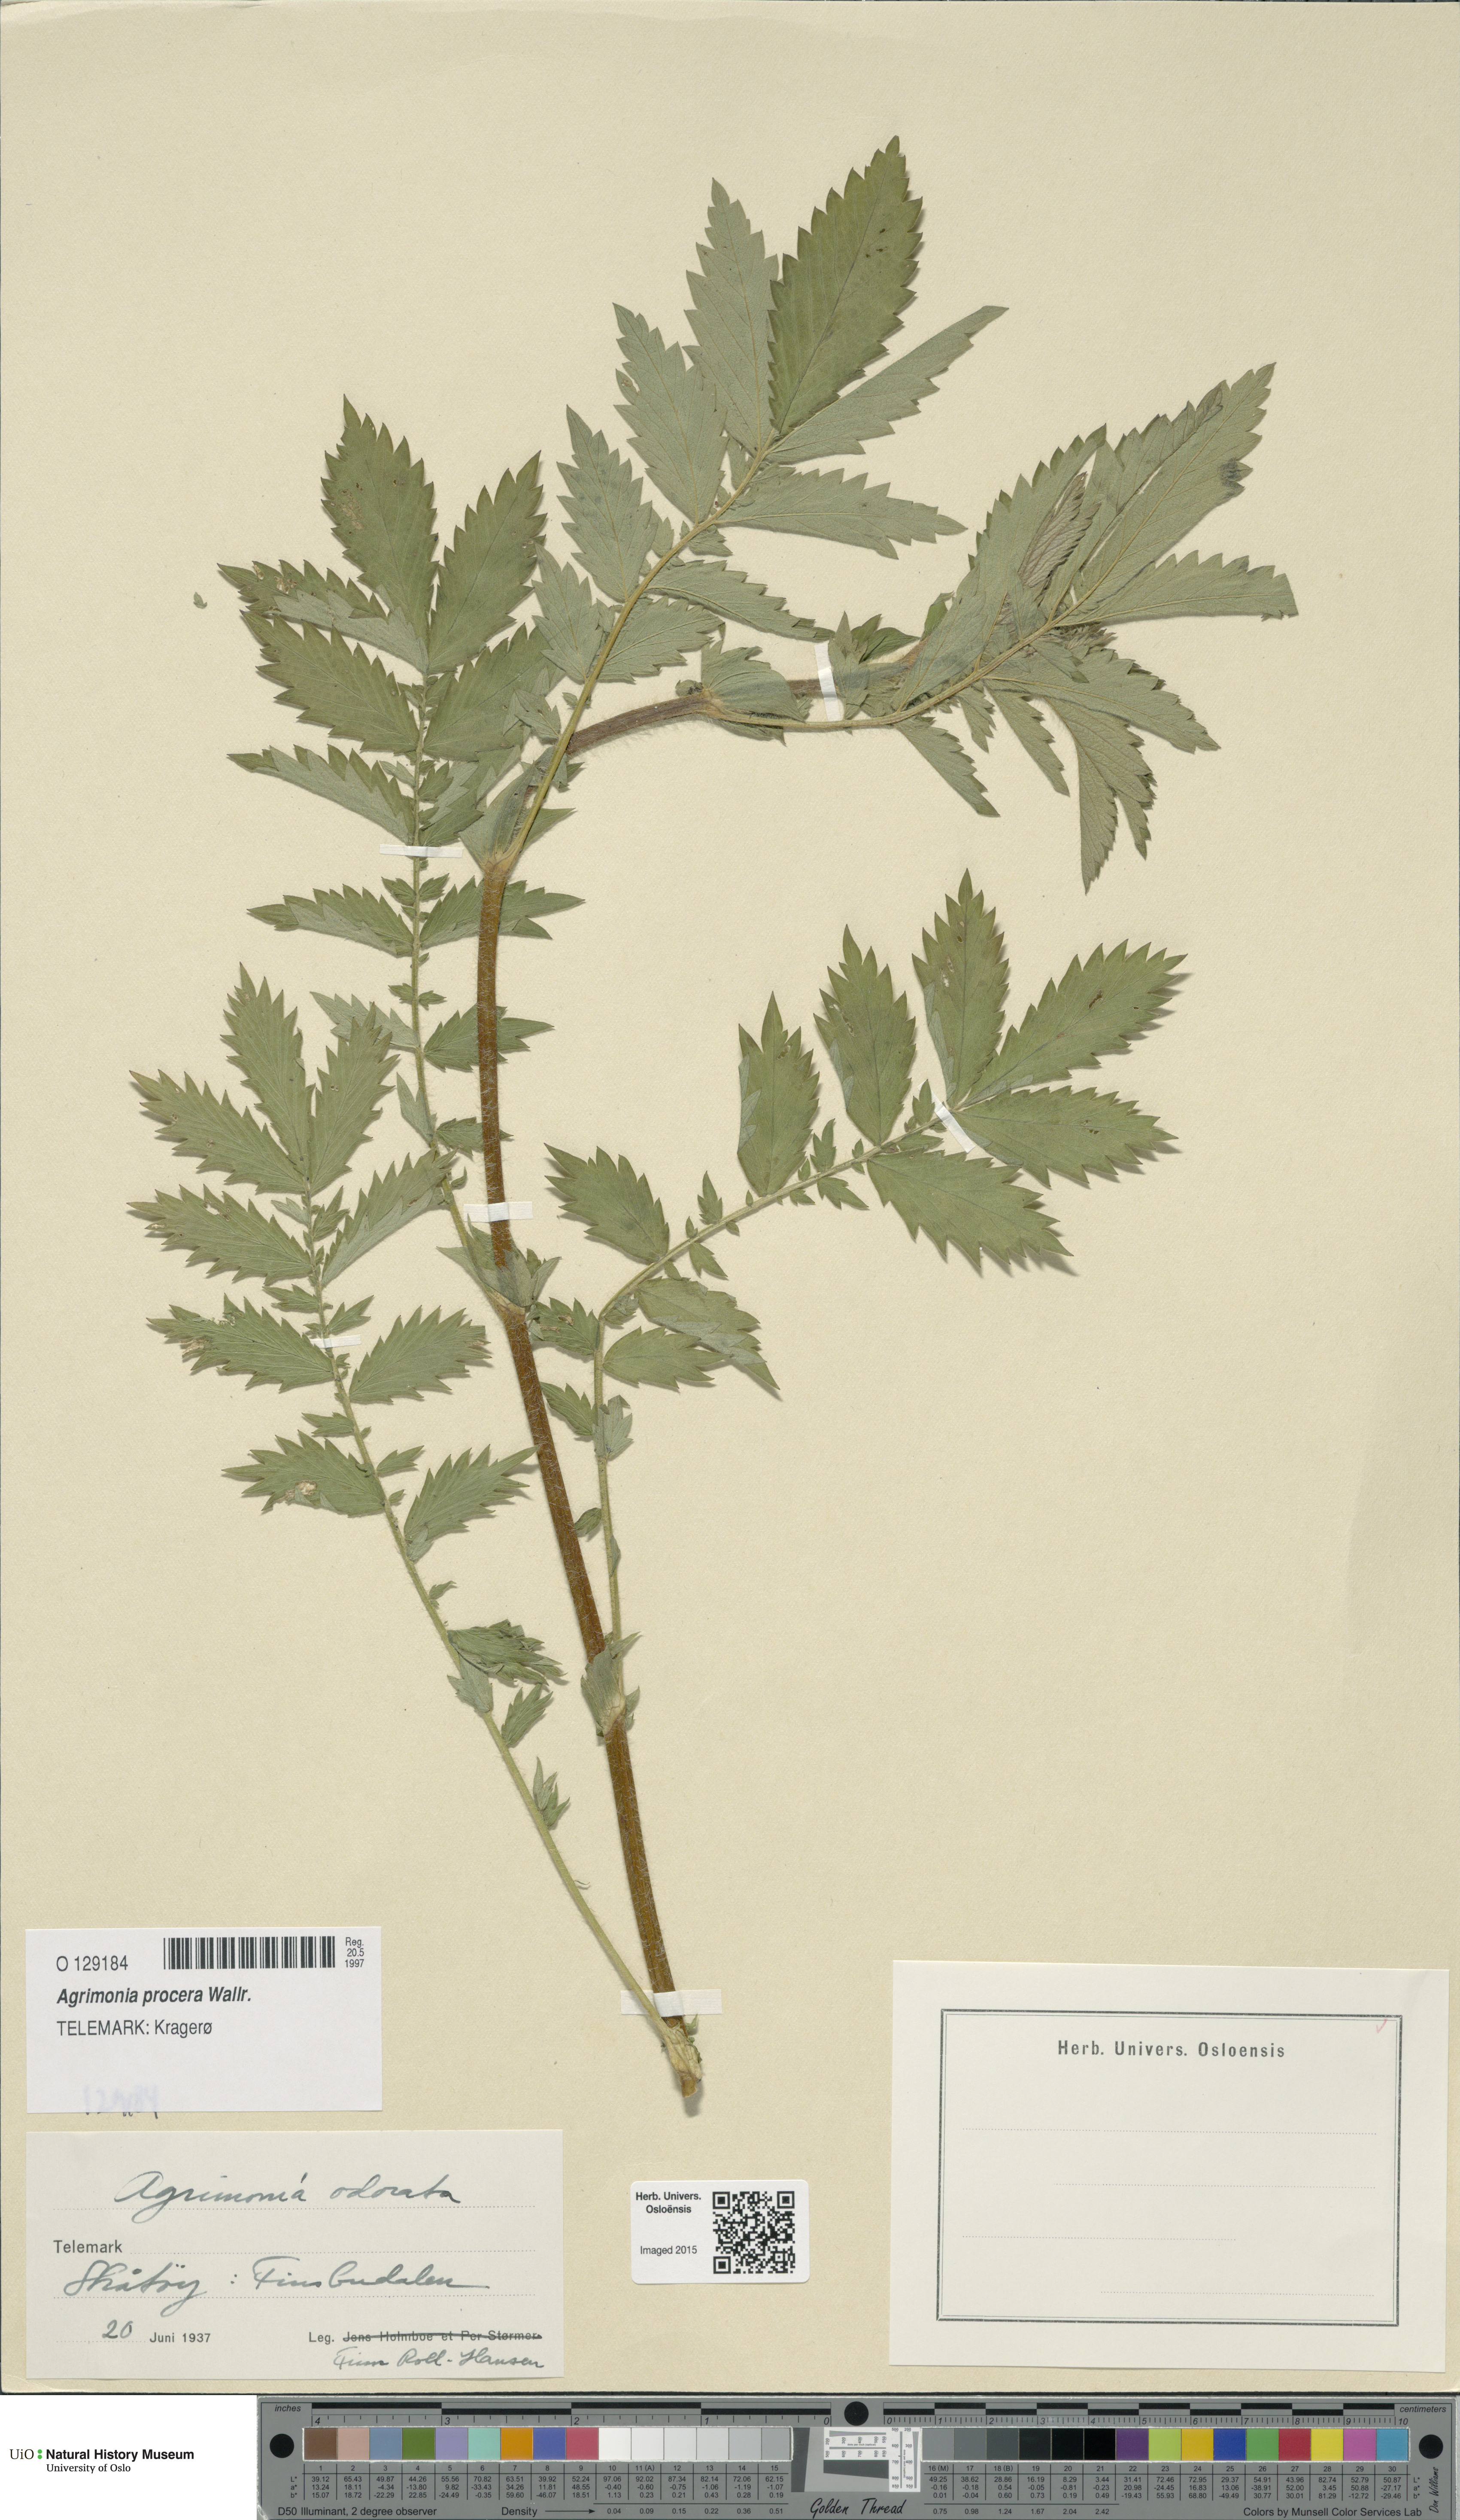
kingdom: Plantae
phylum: Tracheophyta
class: Magnoliopsida
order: Rosales
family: Rosaceae
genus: Agrimonia
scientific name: Agrimonia procera
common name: Fragrant agrimony
